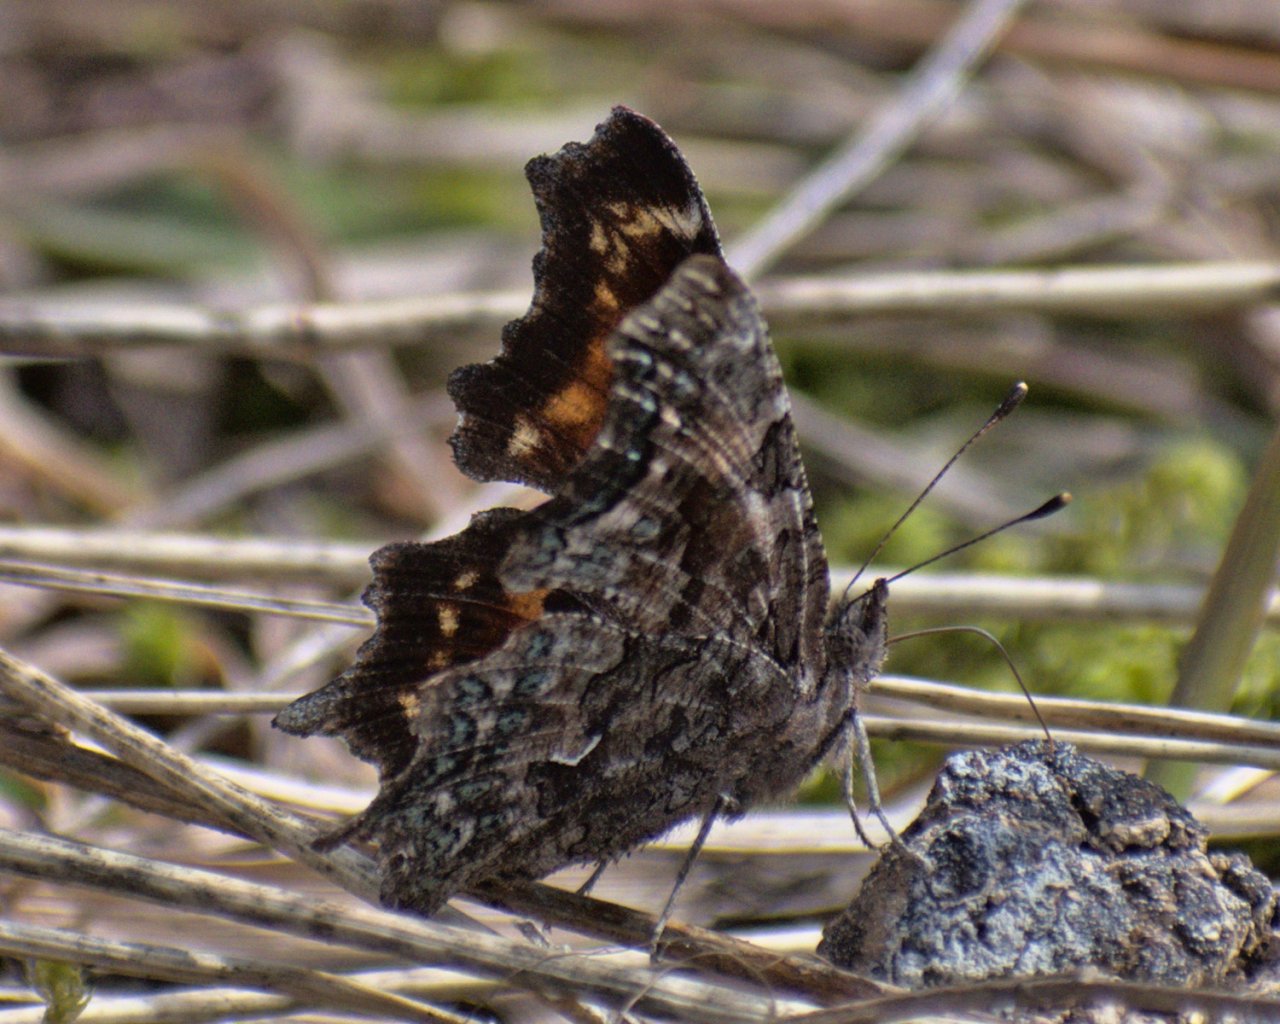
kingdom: Animalia
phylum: Arthropoda
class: Insecta
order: Lepidoptera
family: Nymphalidae
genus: Polygonia
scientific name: Polygonia faunus
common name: Green Comma
